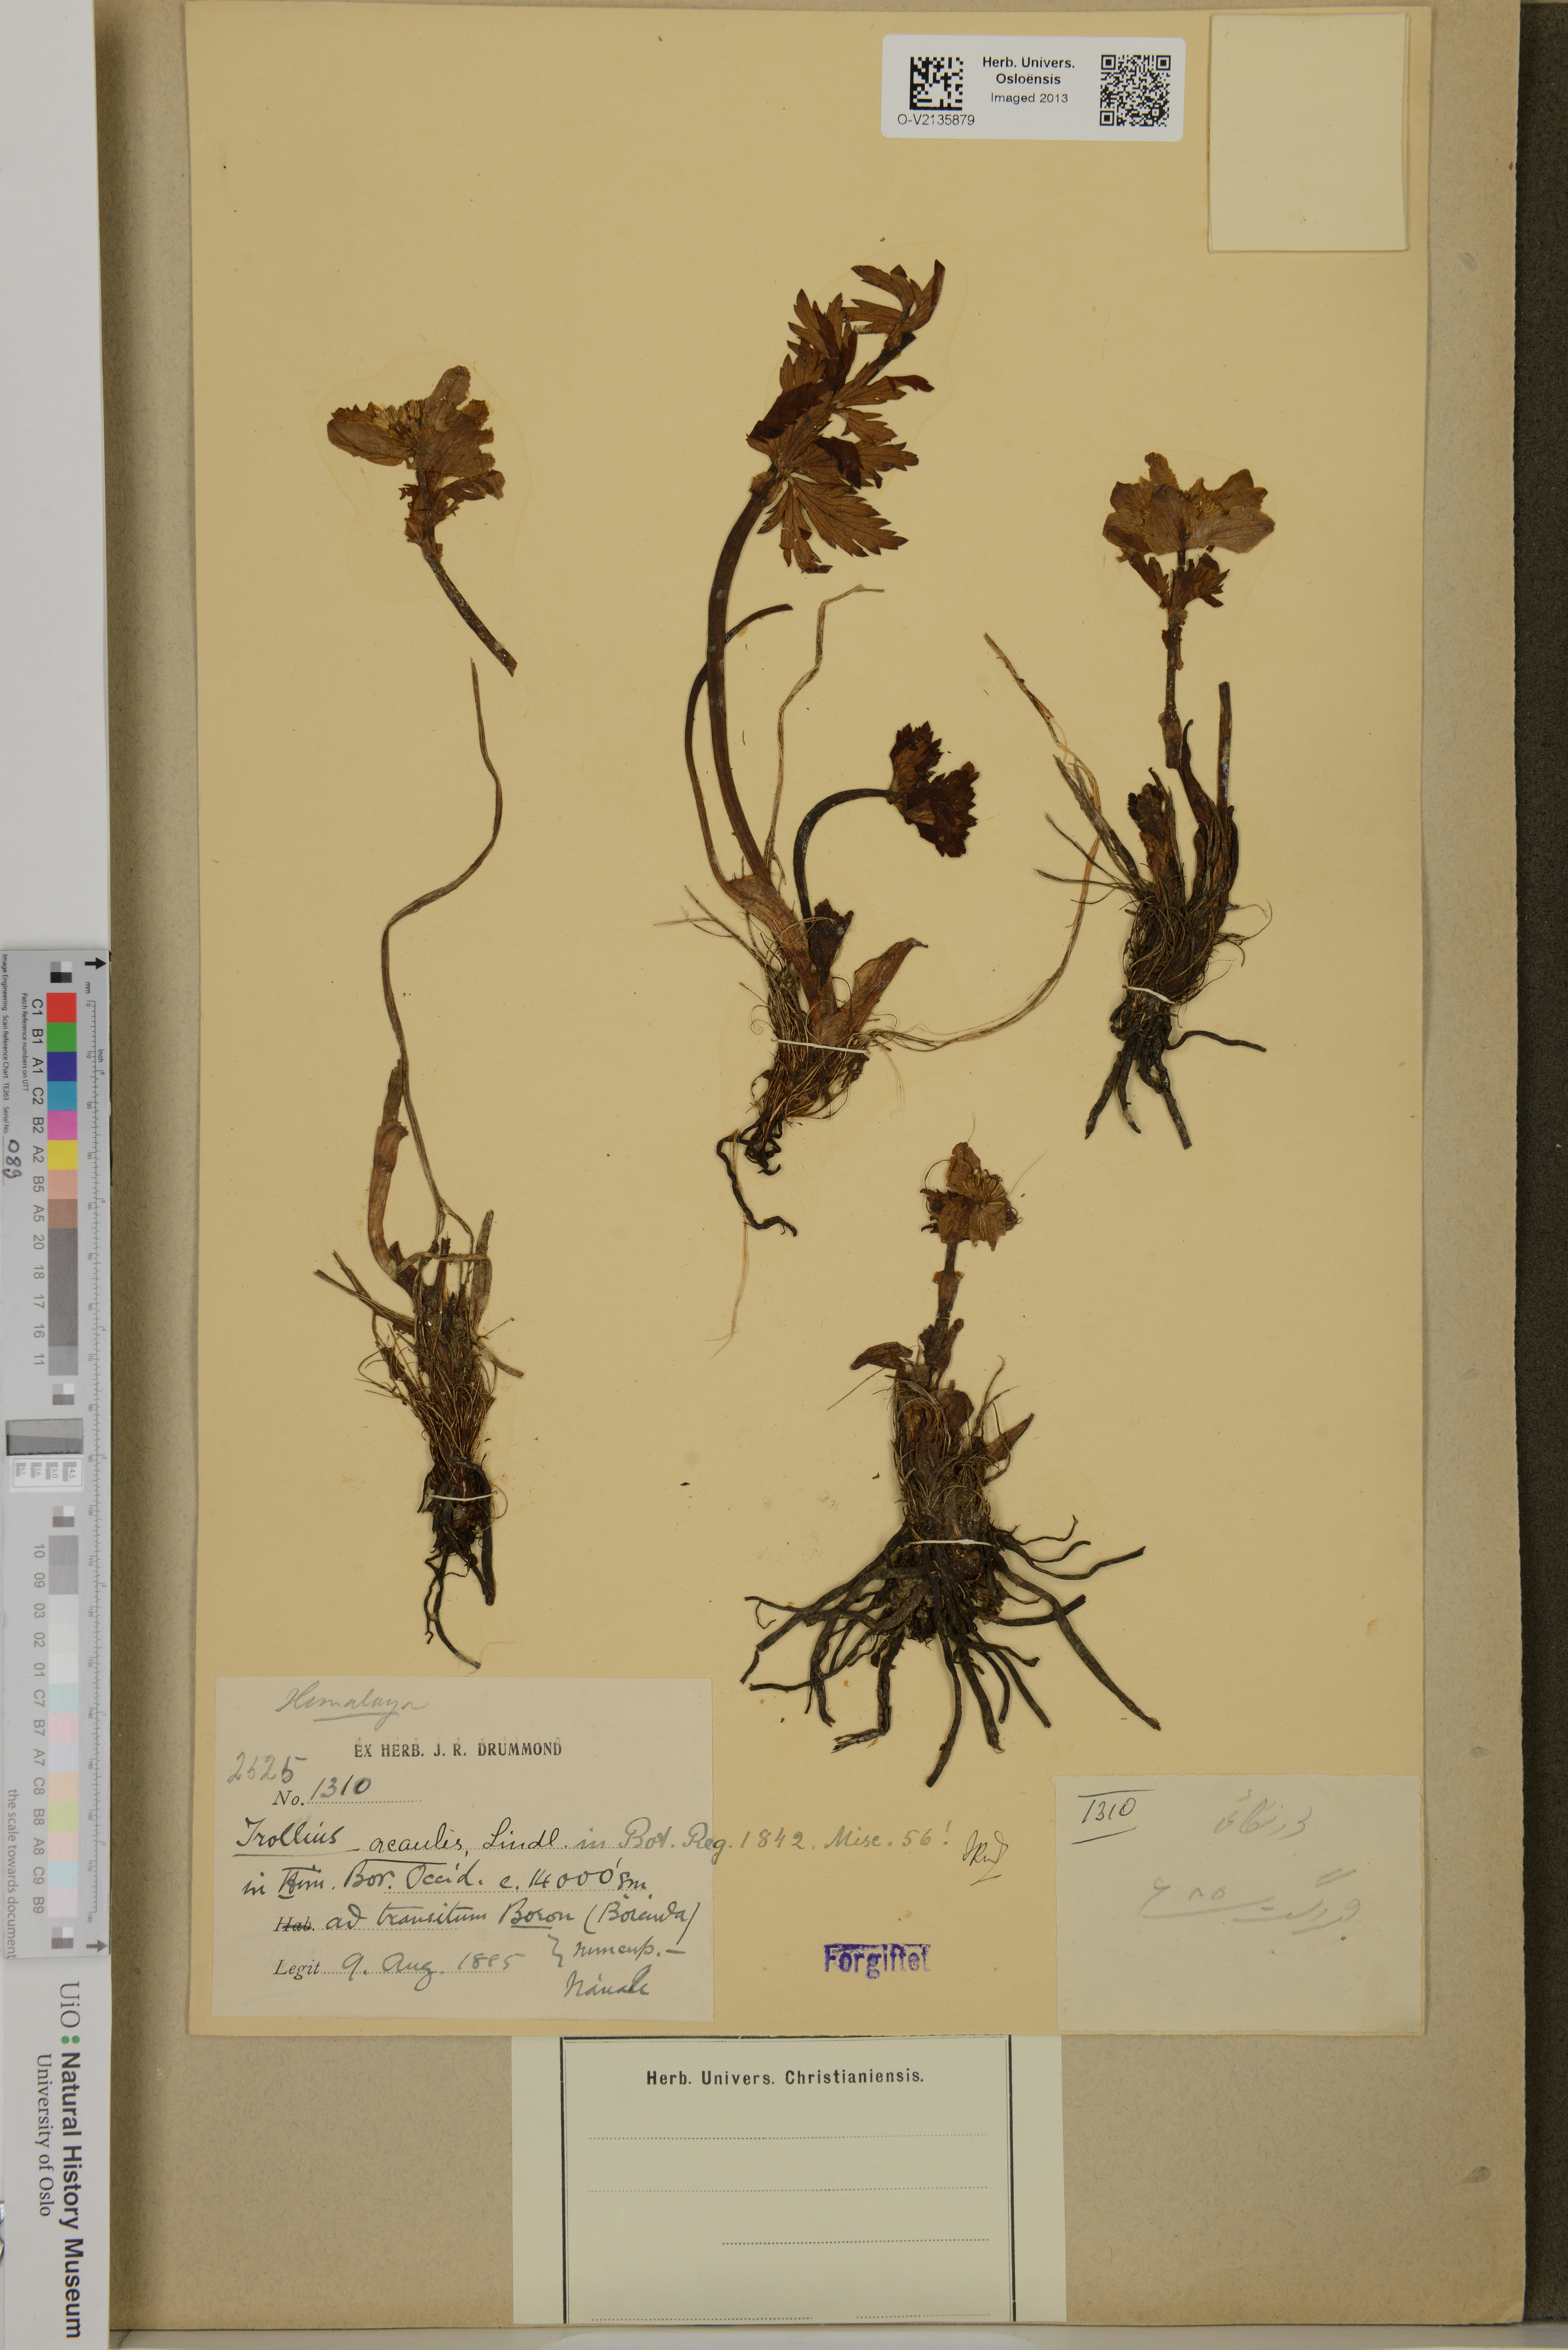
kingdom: Plantae
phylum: Tracheophyta
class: Magnoliopsida
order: Ranunculales
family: Ranunculaceae
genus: Trollius
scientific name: Trollius acaulis
